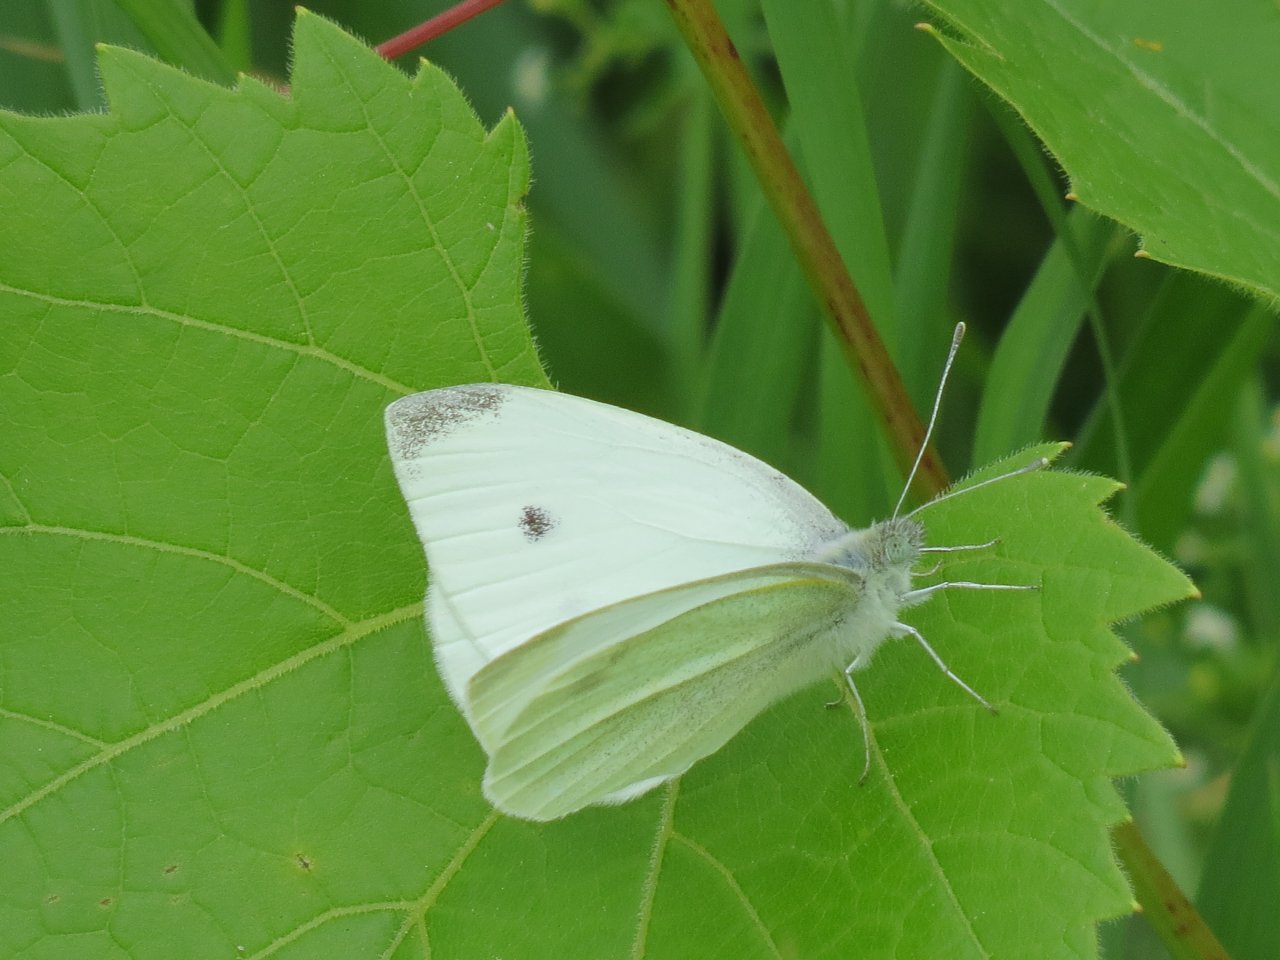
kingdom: Animalia
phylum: Arthropoda
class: Insecta
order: Lepidoptera
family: Pieridae
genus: Pieris
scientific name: Pieris rapae
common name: Cabbage White
